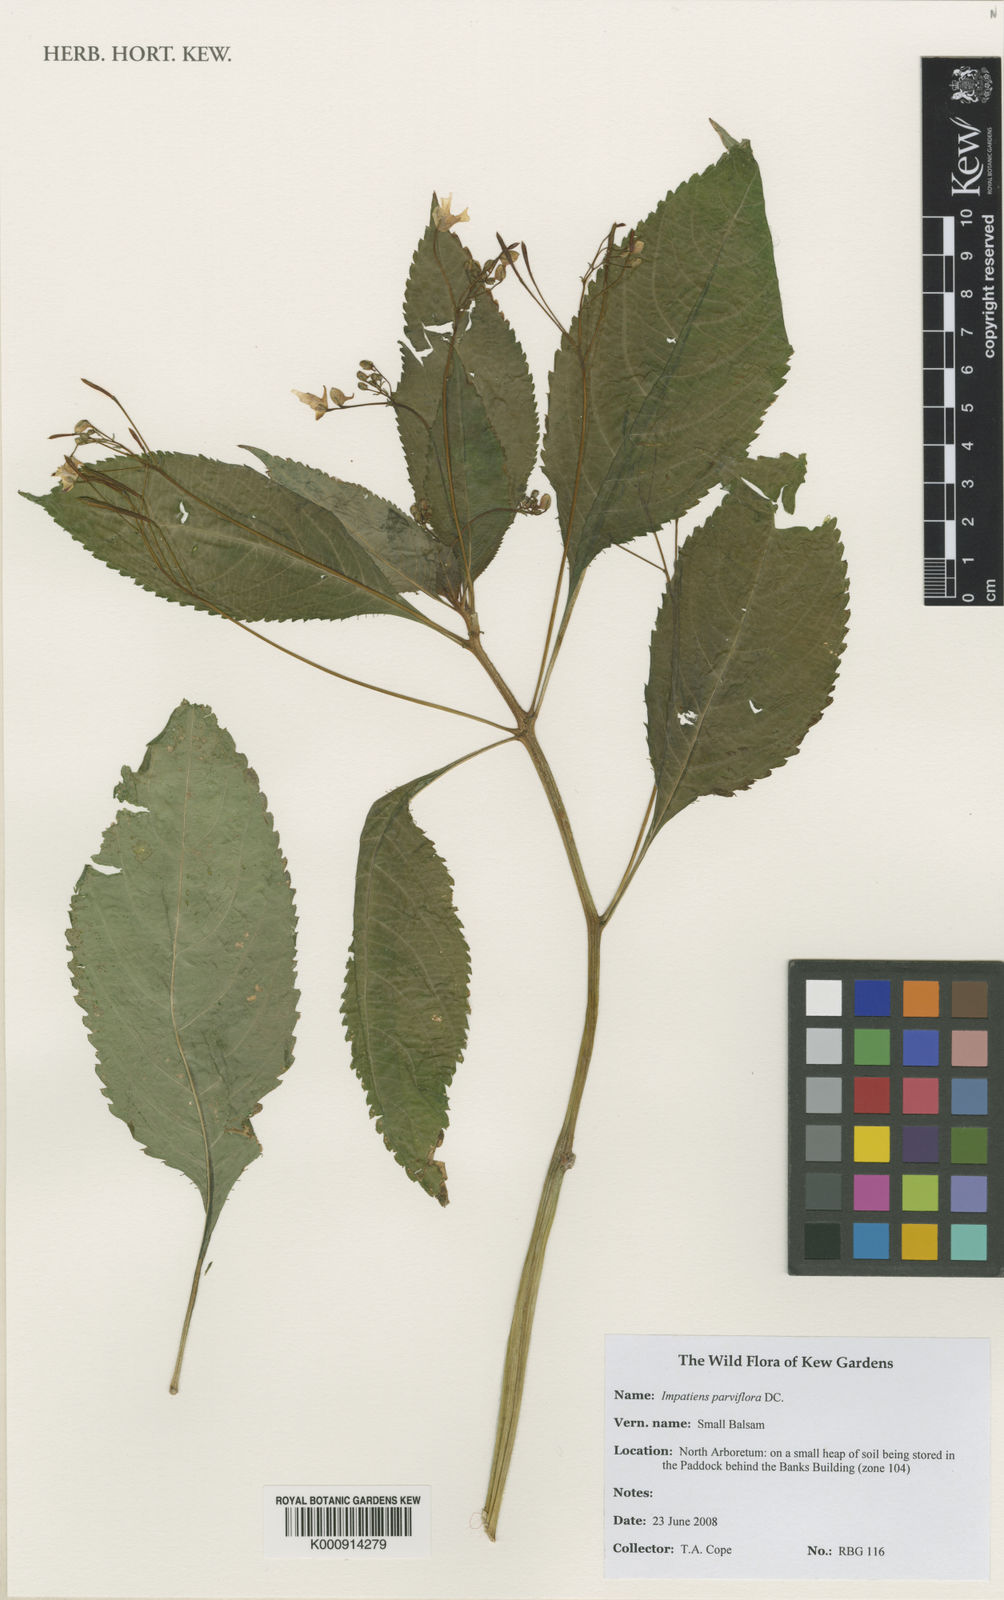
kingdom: Plantae
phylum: Tracheophyta
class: Magnoliopsida
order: Ericales
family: Balsaminaceae
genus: Impatiens
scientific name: Impatiens parviflora
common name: Small balsam
